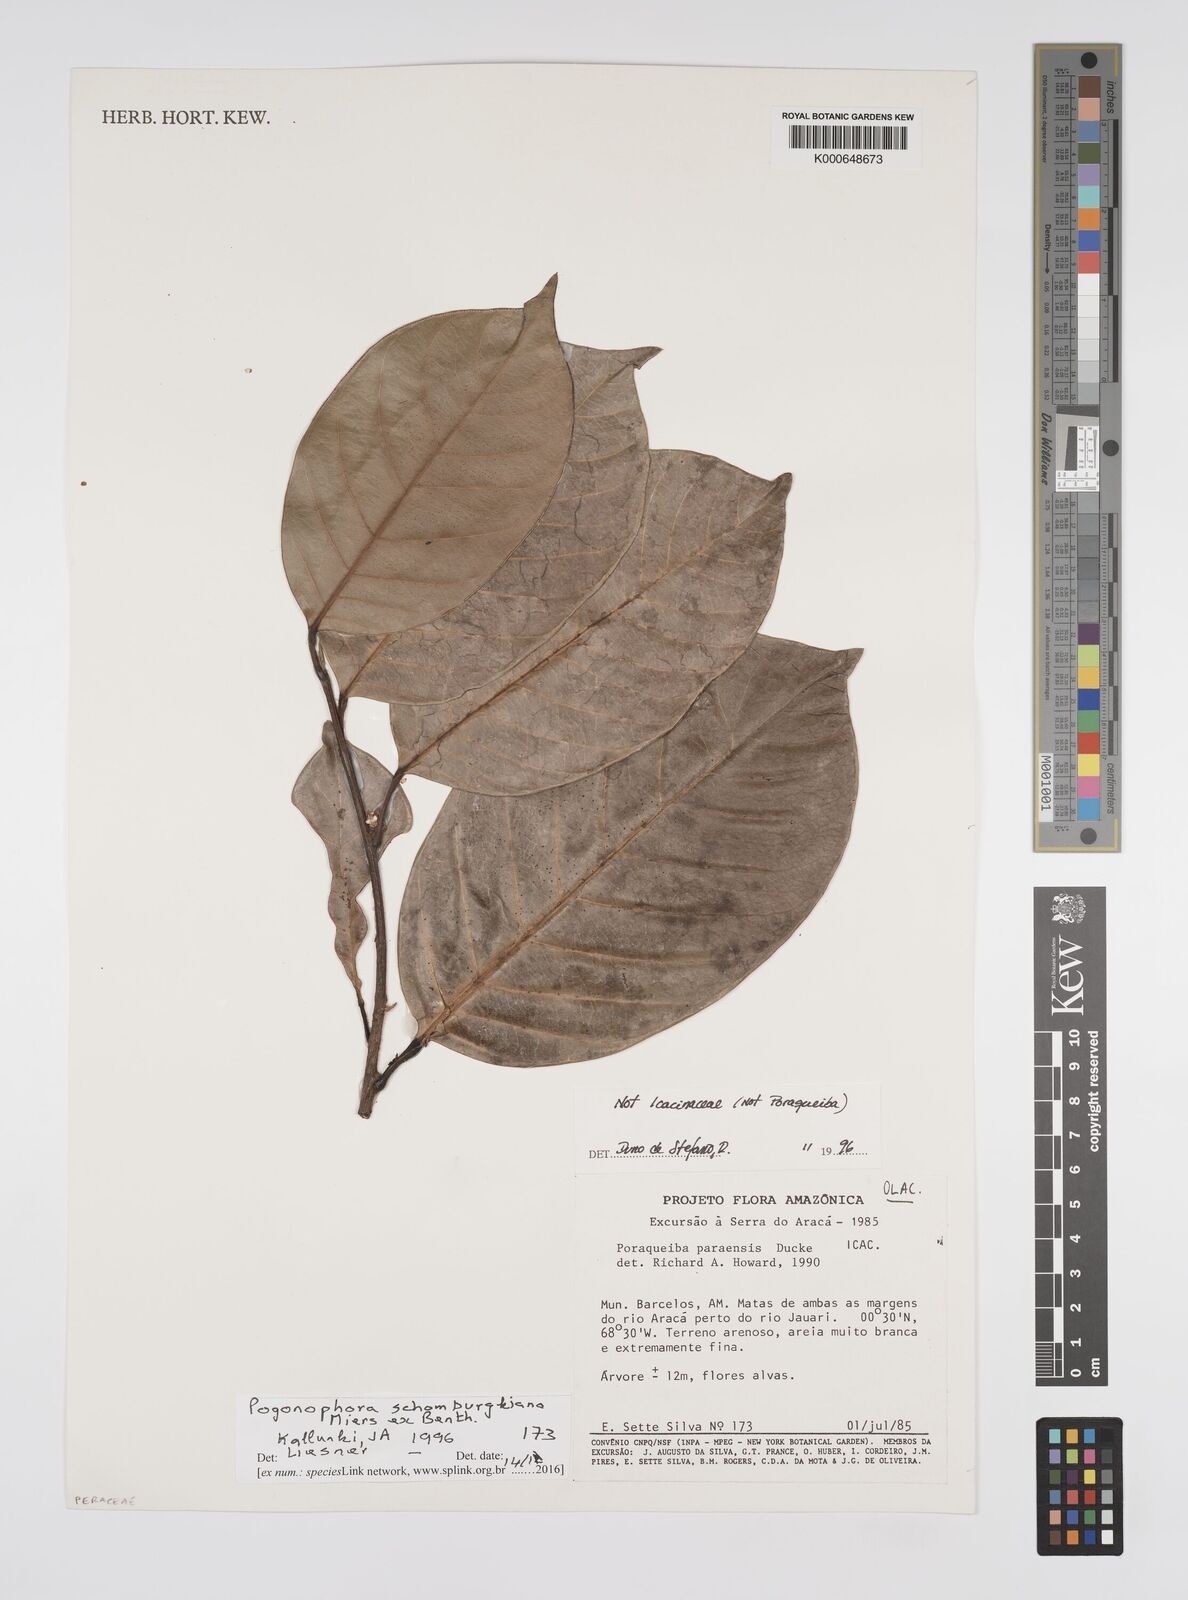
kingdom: Plantae
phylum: Tracheophyta
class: Magnoliopsida
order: Malpighiales
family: Peraceae
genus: Pogonophora
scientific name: Pogonophora schomburgkiana
